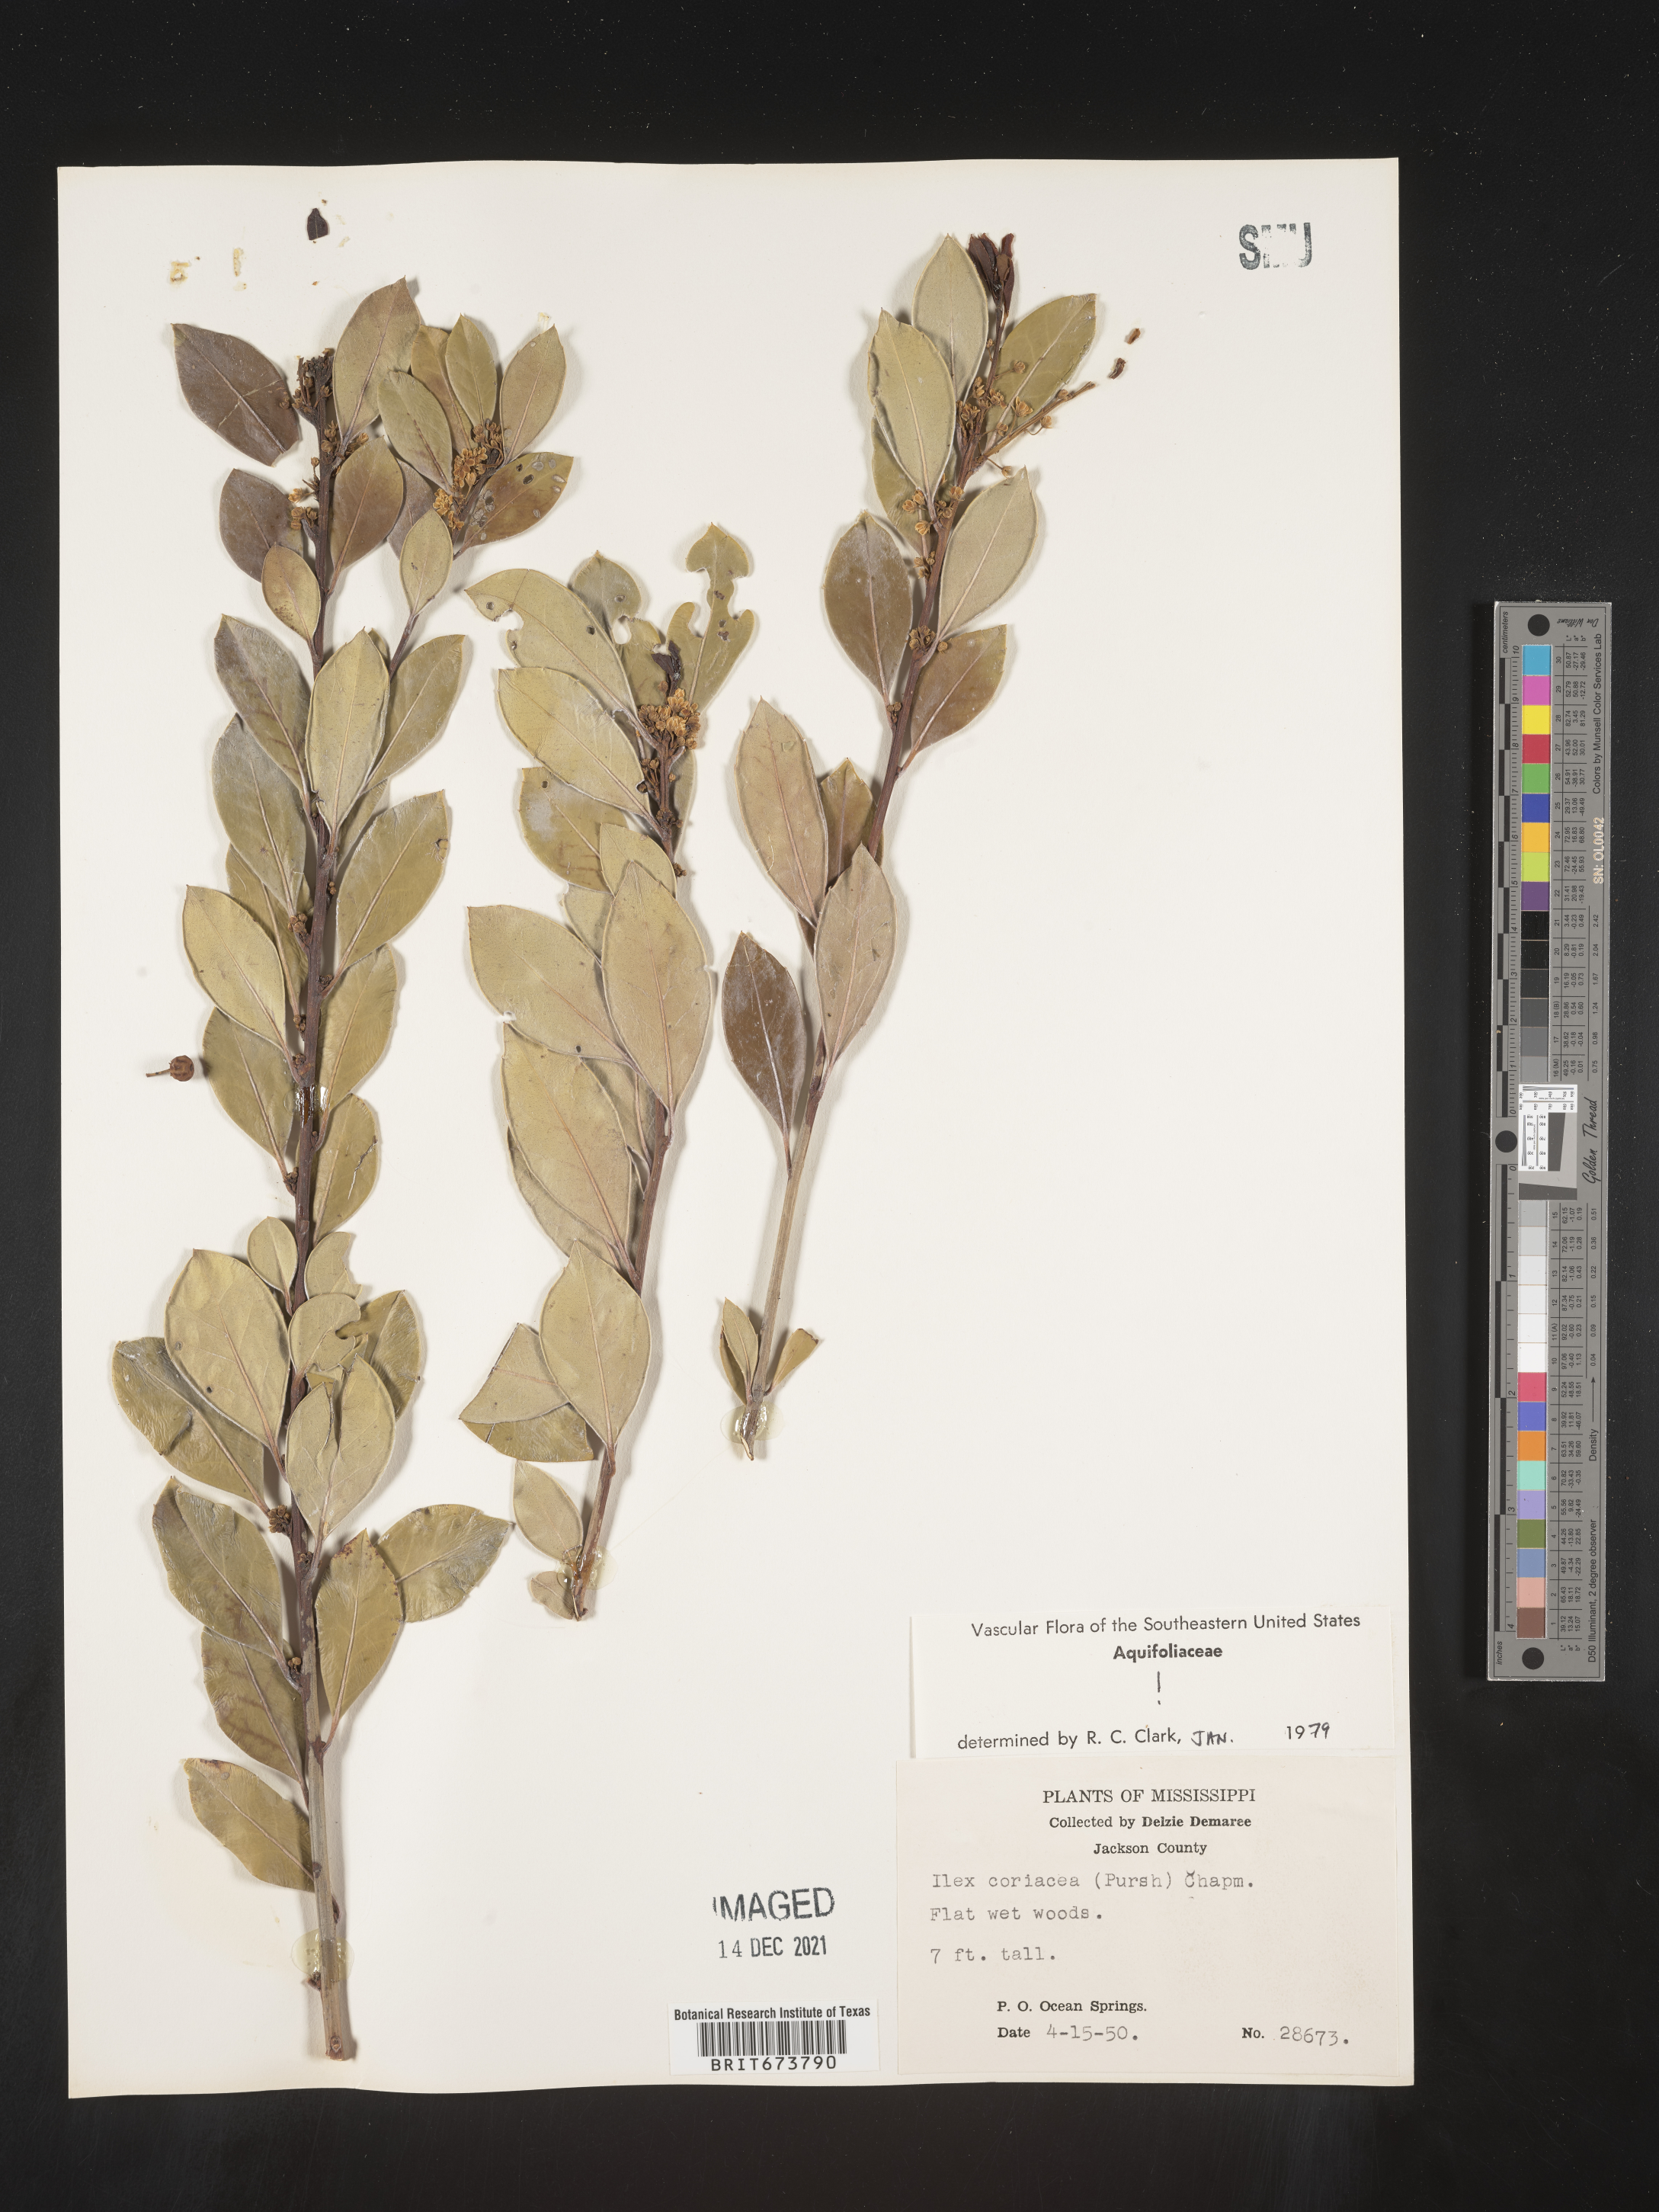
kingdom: Plantae
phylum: Tracheophyta
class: Magnoliopsida
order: Aquifoliales
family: Aquifoliaceae
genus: Ilex
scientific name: Ilex coriacea
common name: Sweet gallberry
